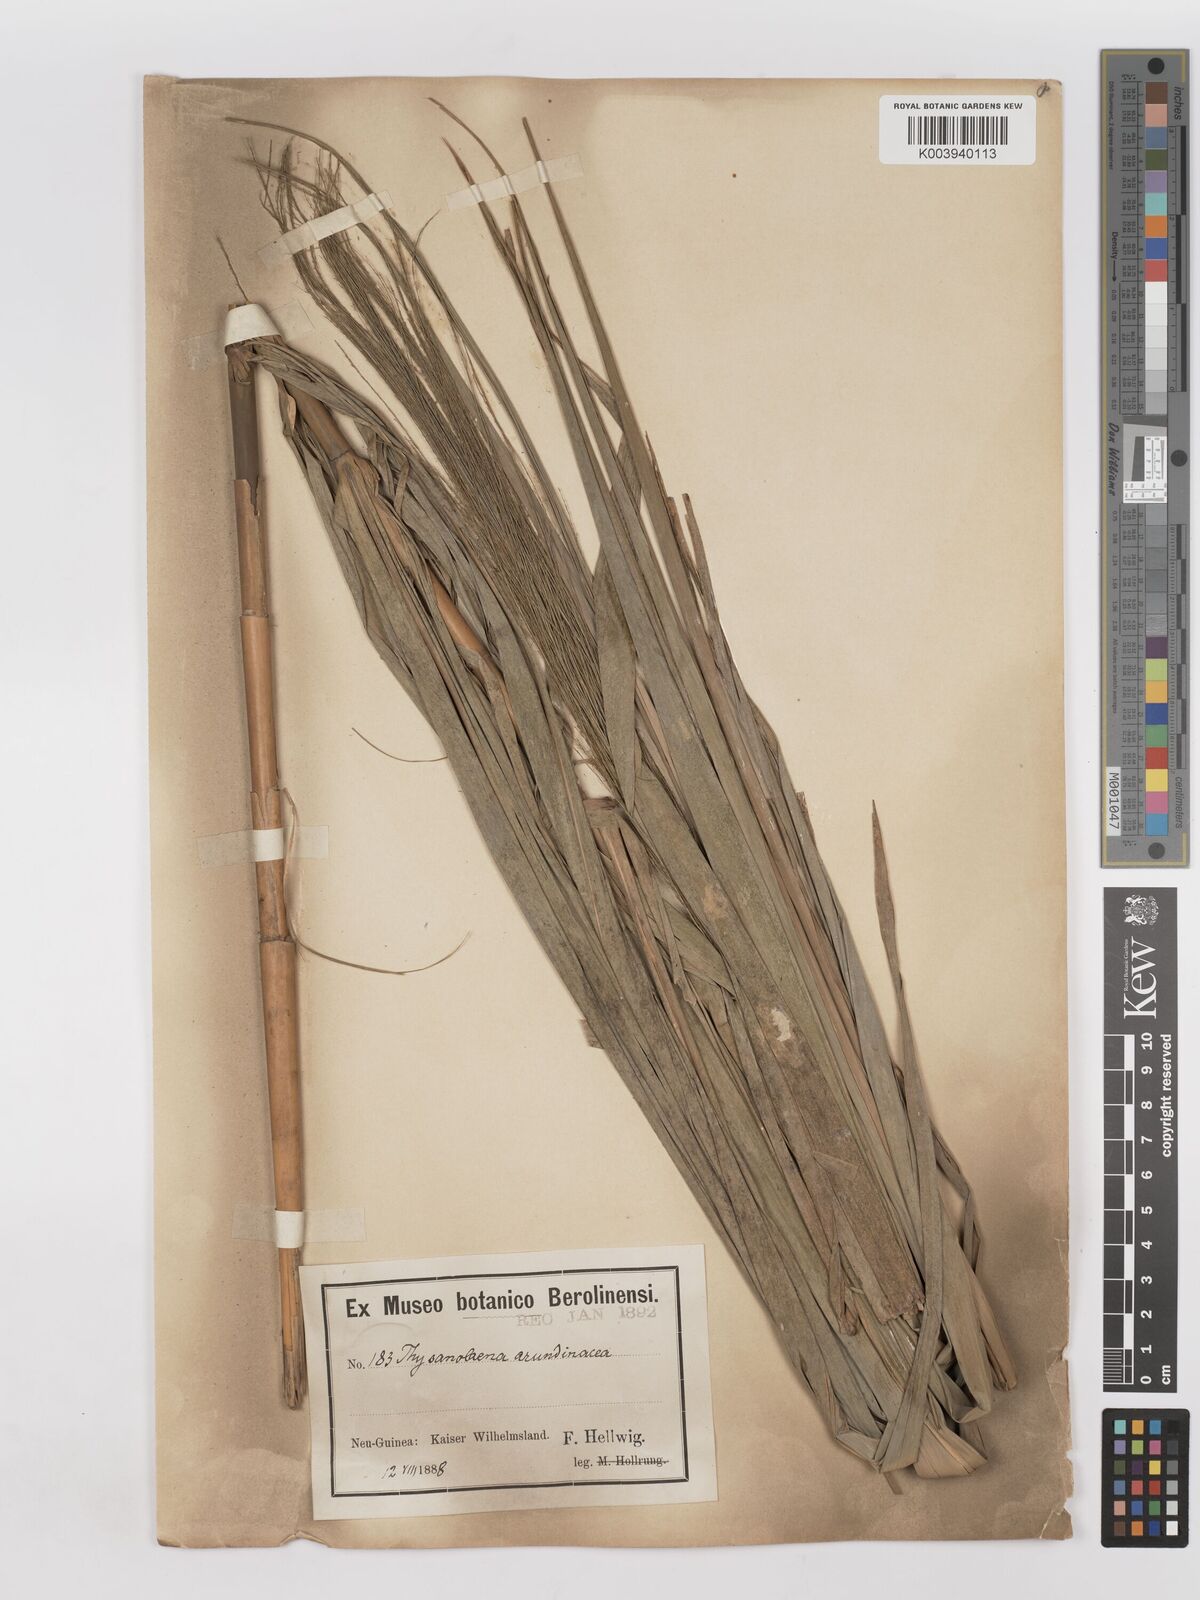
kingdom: Plantae
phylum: Tracheophyta
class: Liliopsida
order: Poales
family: Poaceae
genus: Thysanolaena
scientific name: Thysanolaena latifolia
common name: Tiger grass
